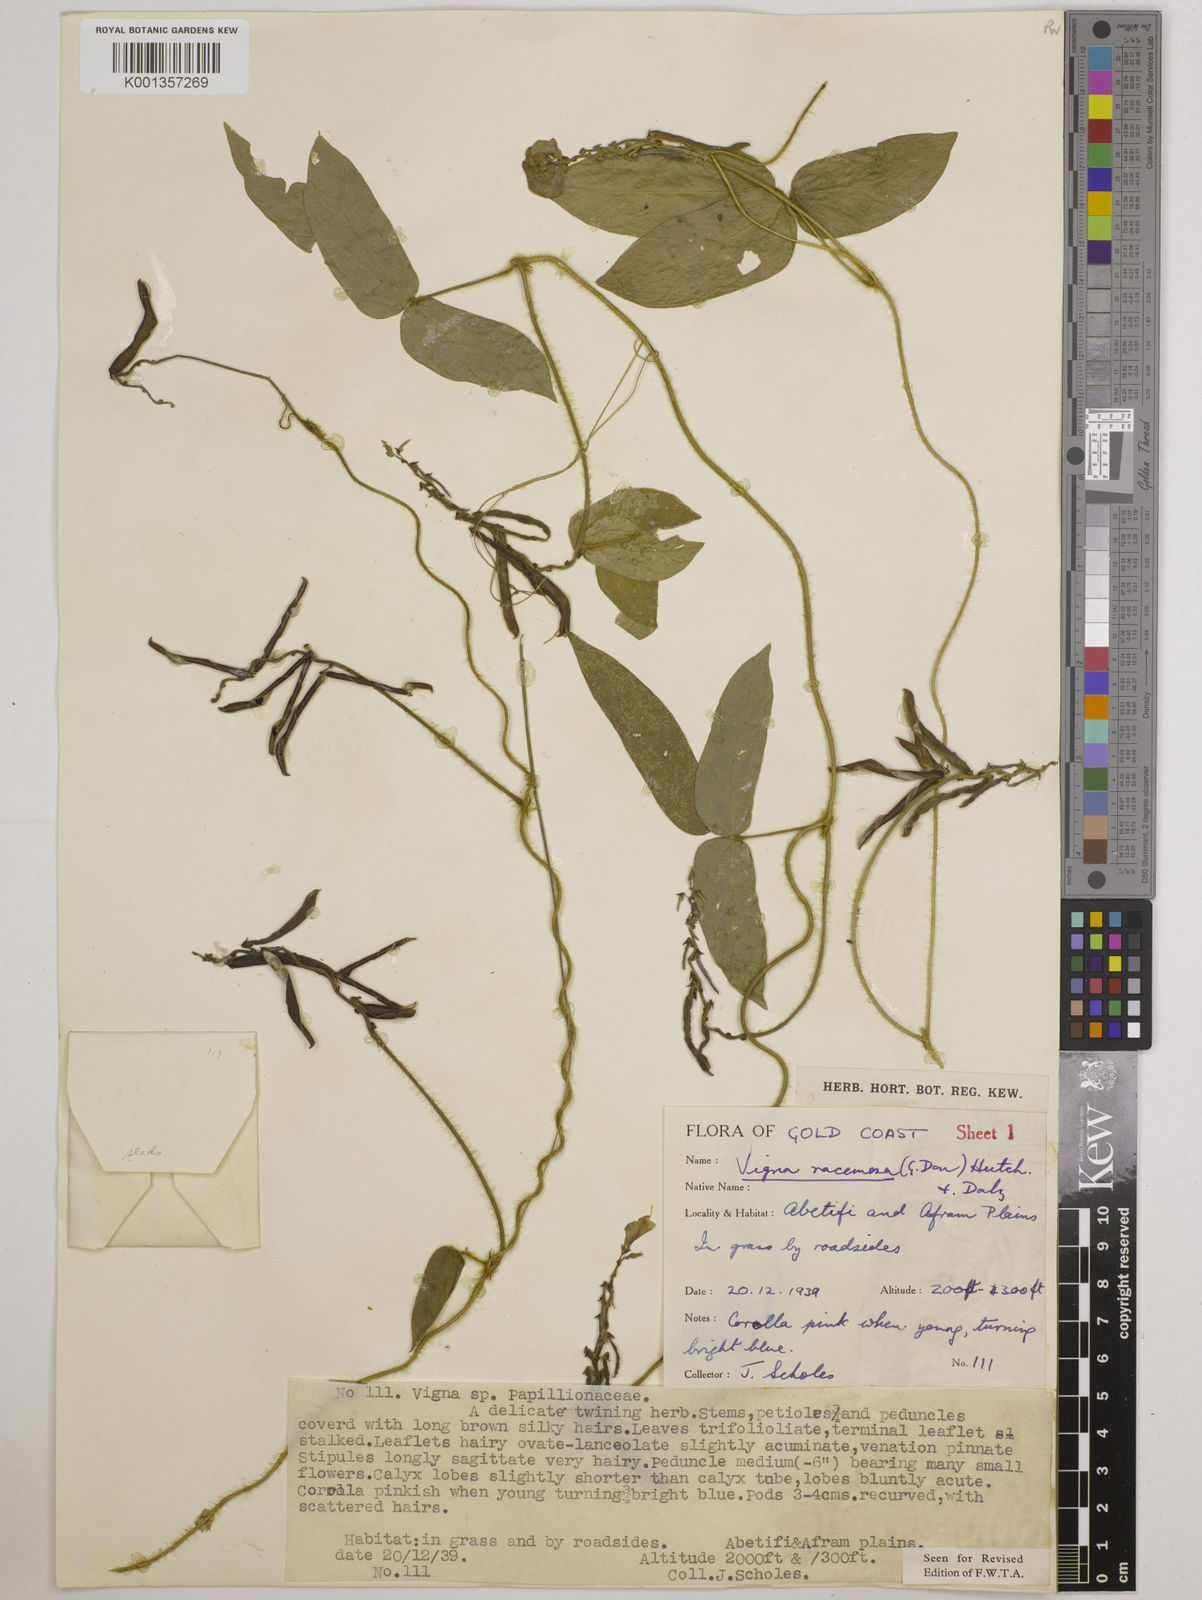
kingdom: Plantae
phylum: Tracheophyta
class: Magnoliopsida
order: Fabales
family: Fabaceae
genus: Vigna
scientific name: Vigna racemosa
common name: Beans not eaten
